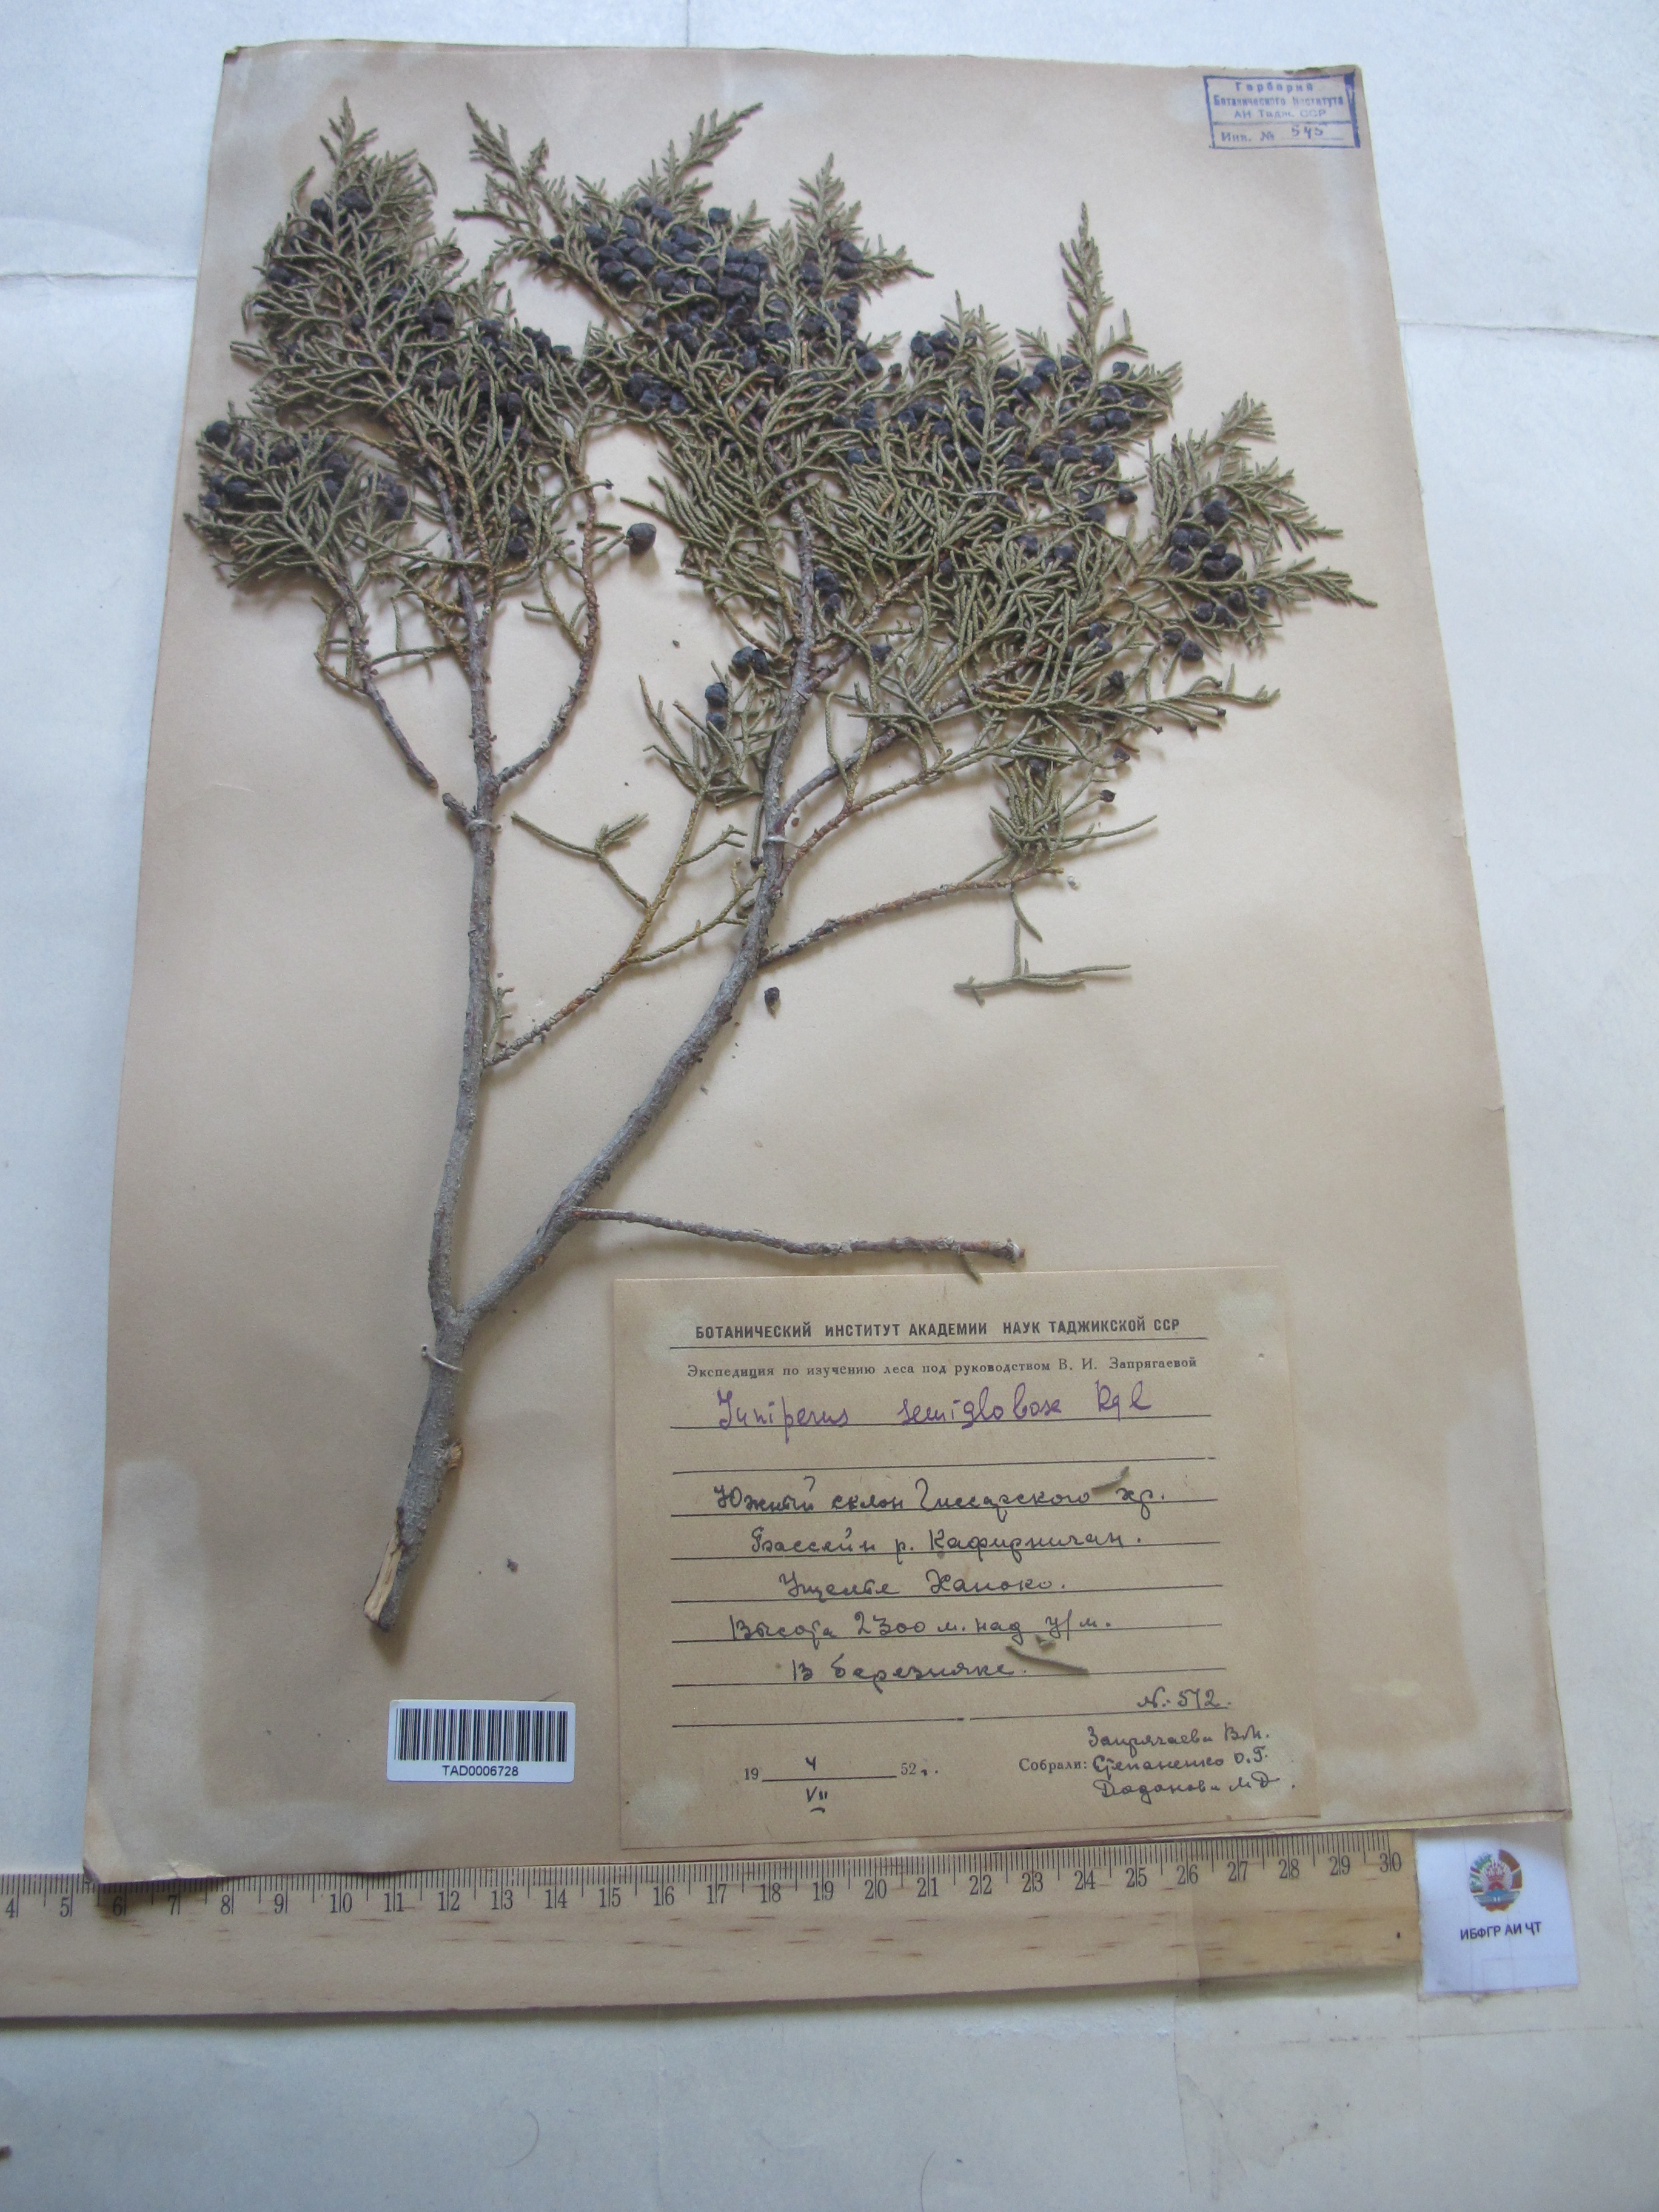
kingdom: Plantae
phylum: Tracheophyta
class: Pinopsida
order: Pinales
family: Cupressaceae
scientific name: Cupressaceae
